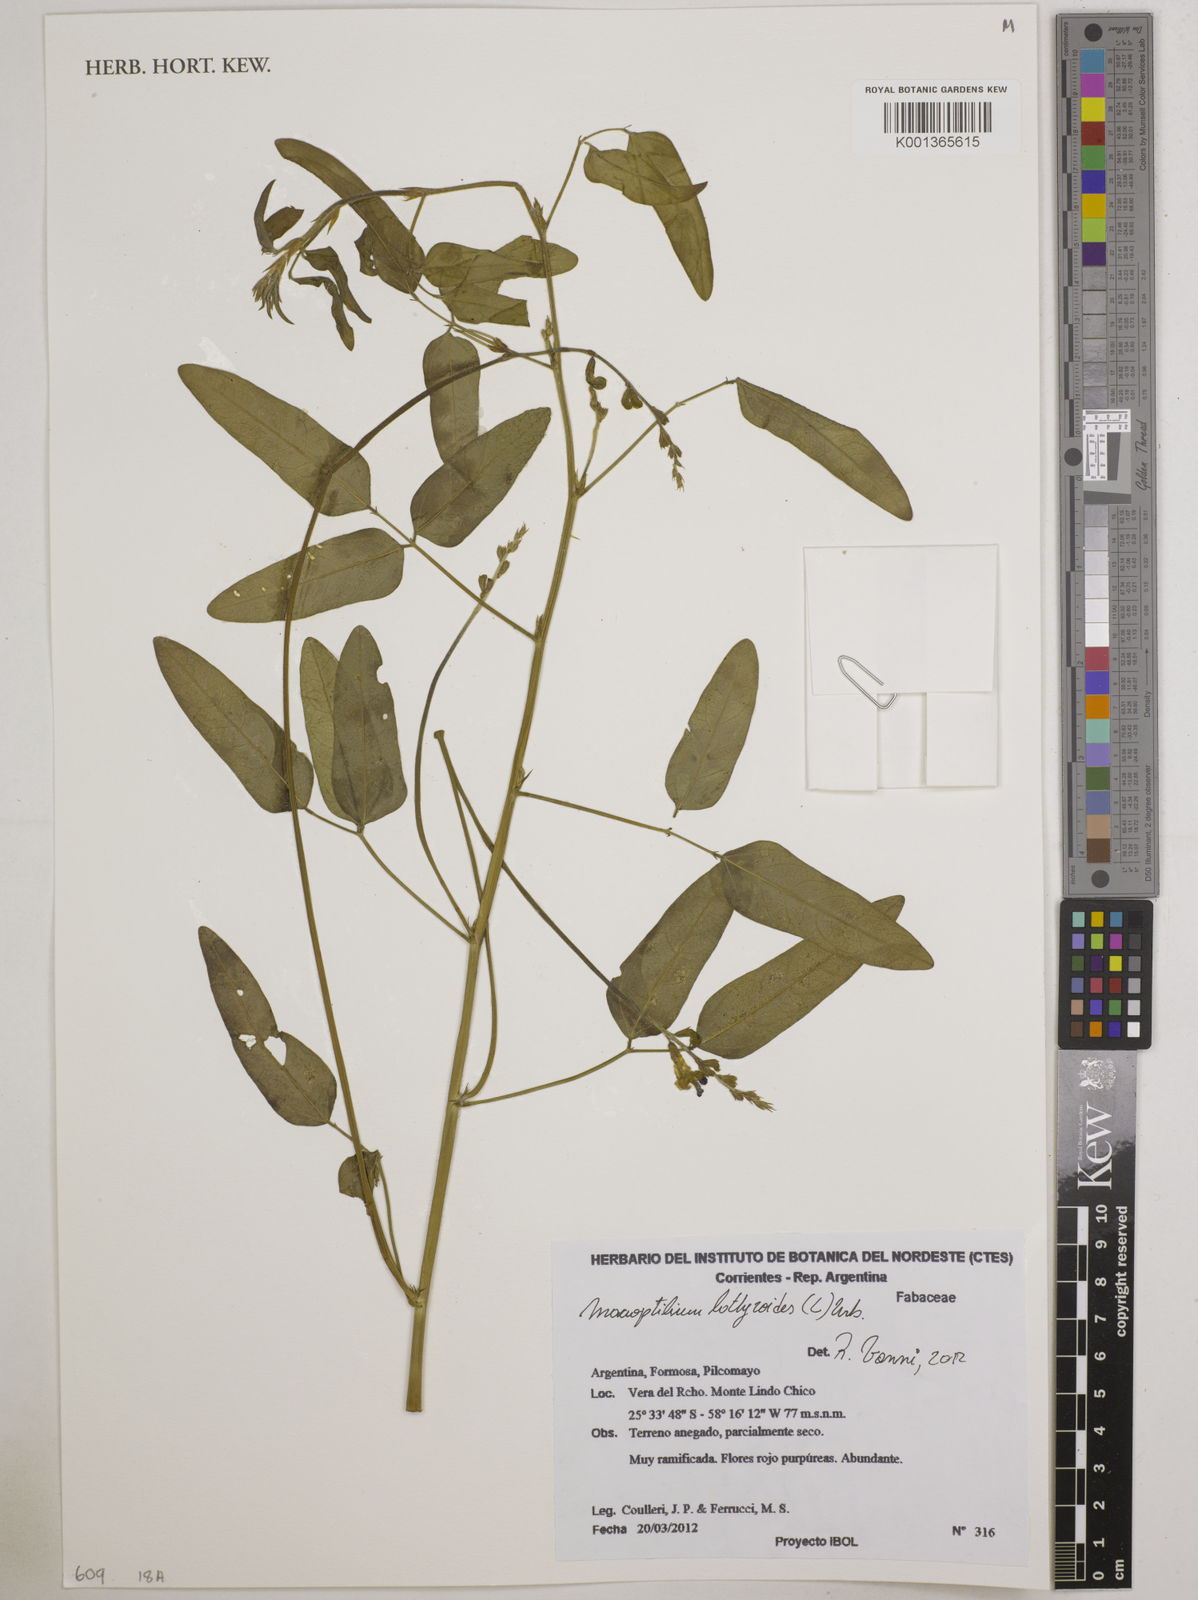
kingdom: Plantae
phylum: Tracheophyta
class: Magnoliopsida
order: Fabales
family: Fabaceae
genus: Macroptilium
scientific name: Macroptilium lathyroides
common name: Wild bushbean
